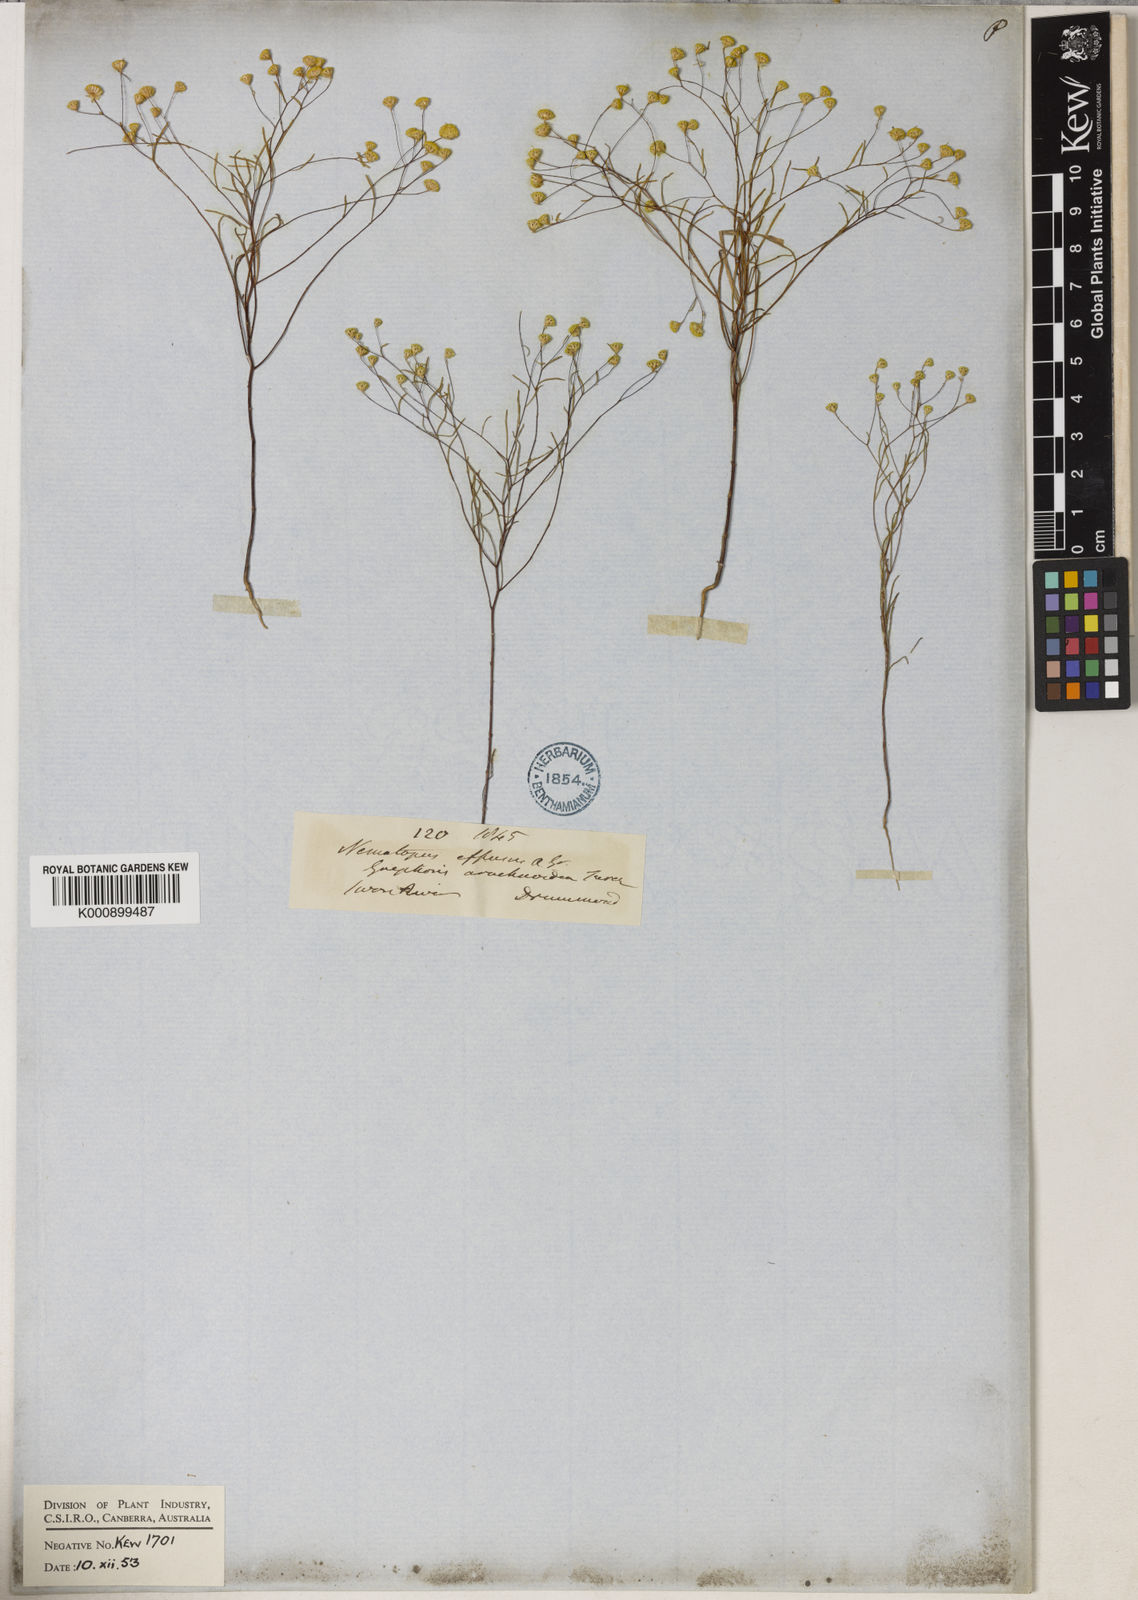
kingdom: Plantae
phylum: Tracheophyta
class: Magnoliopsida
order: Asterales
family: Asteraceae
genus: Gnephosis
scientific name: Gnephosis arachnoidea
